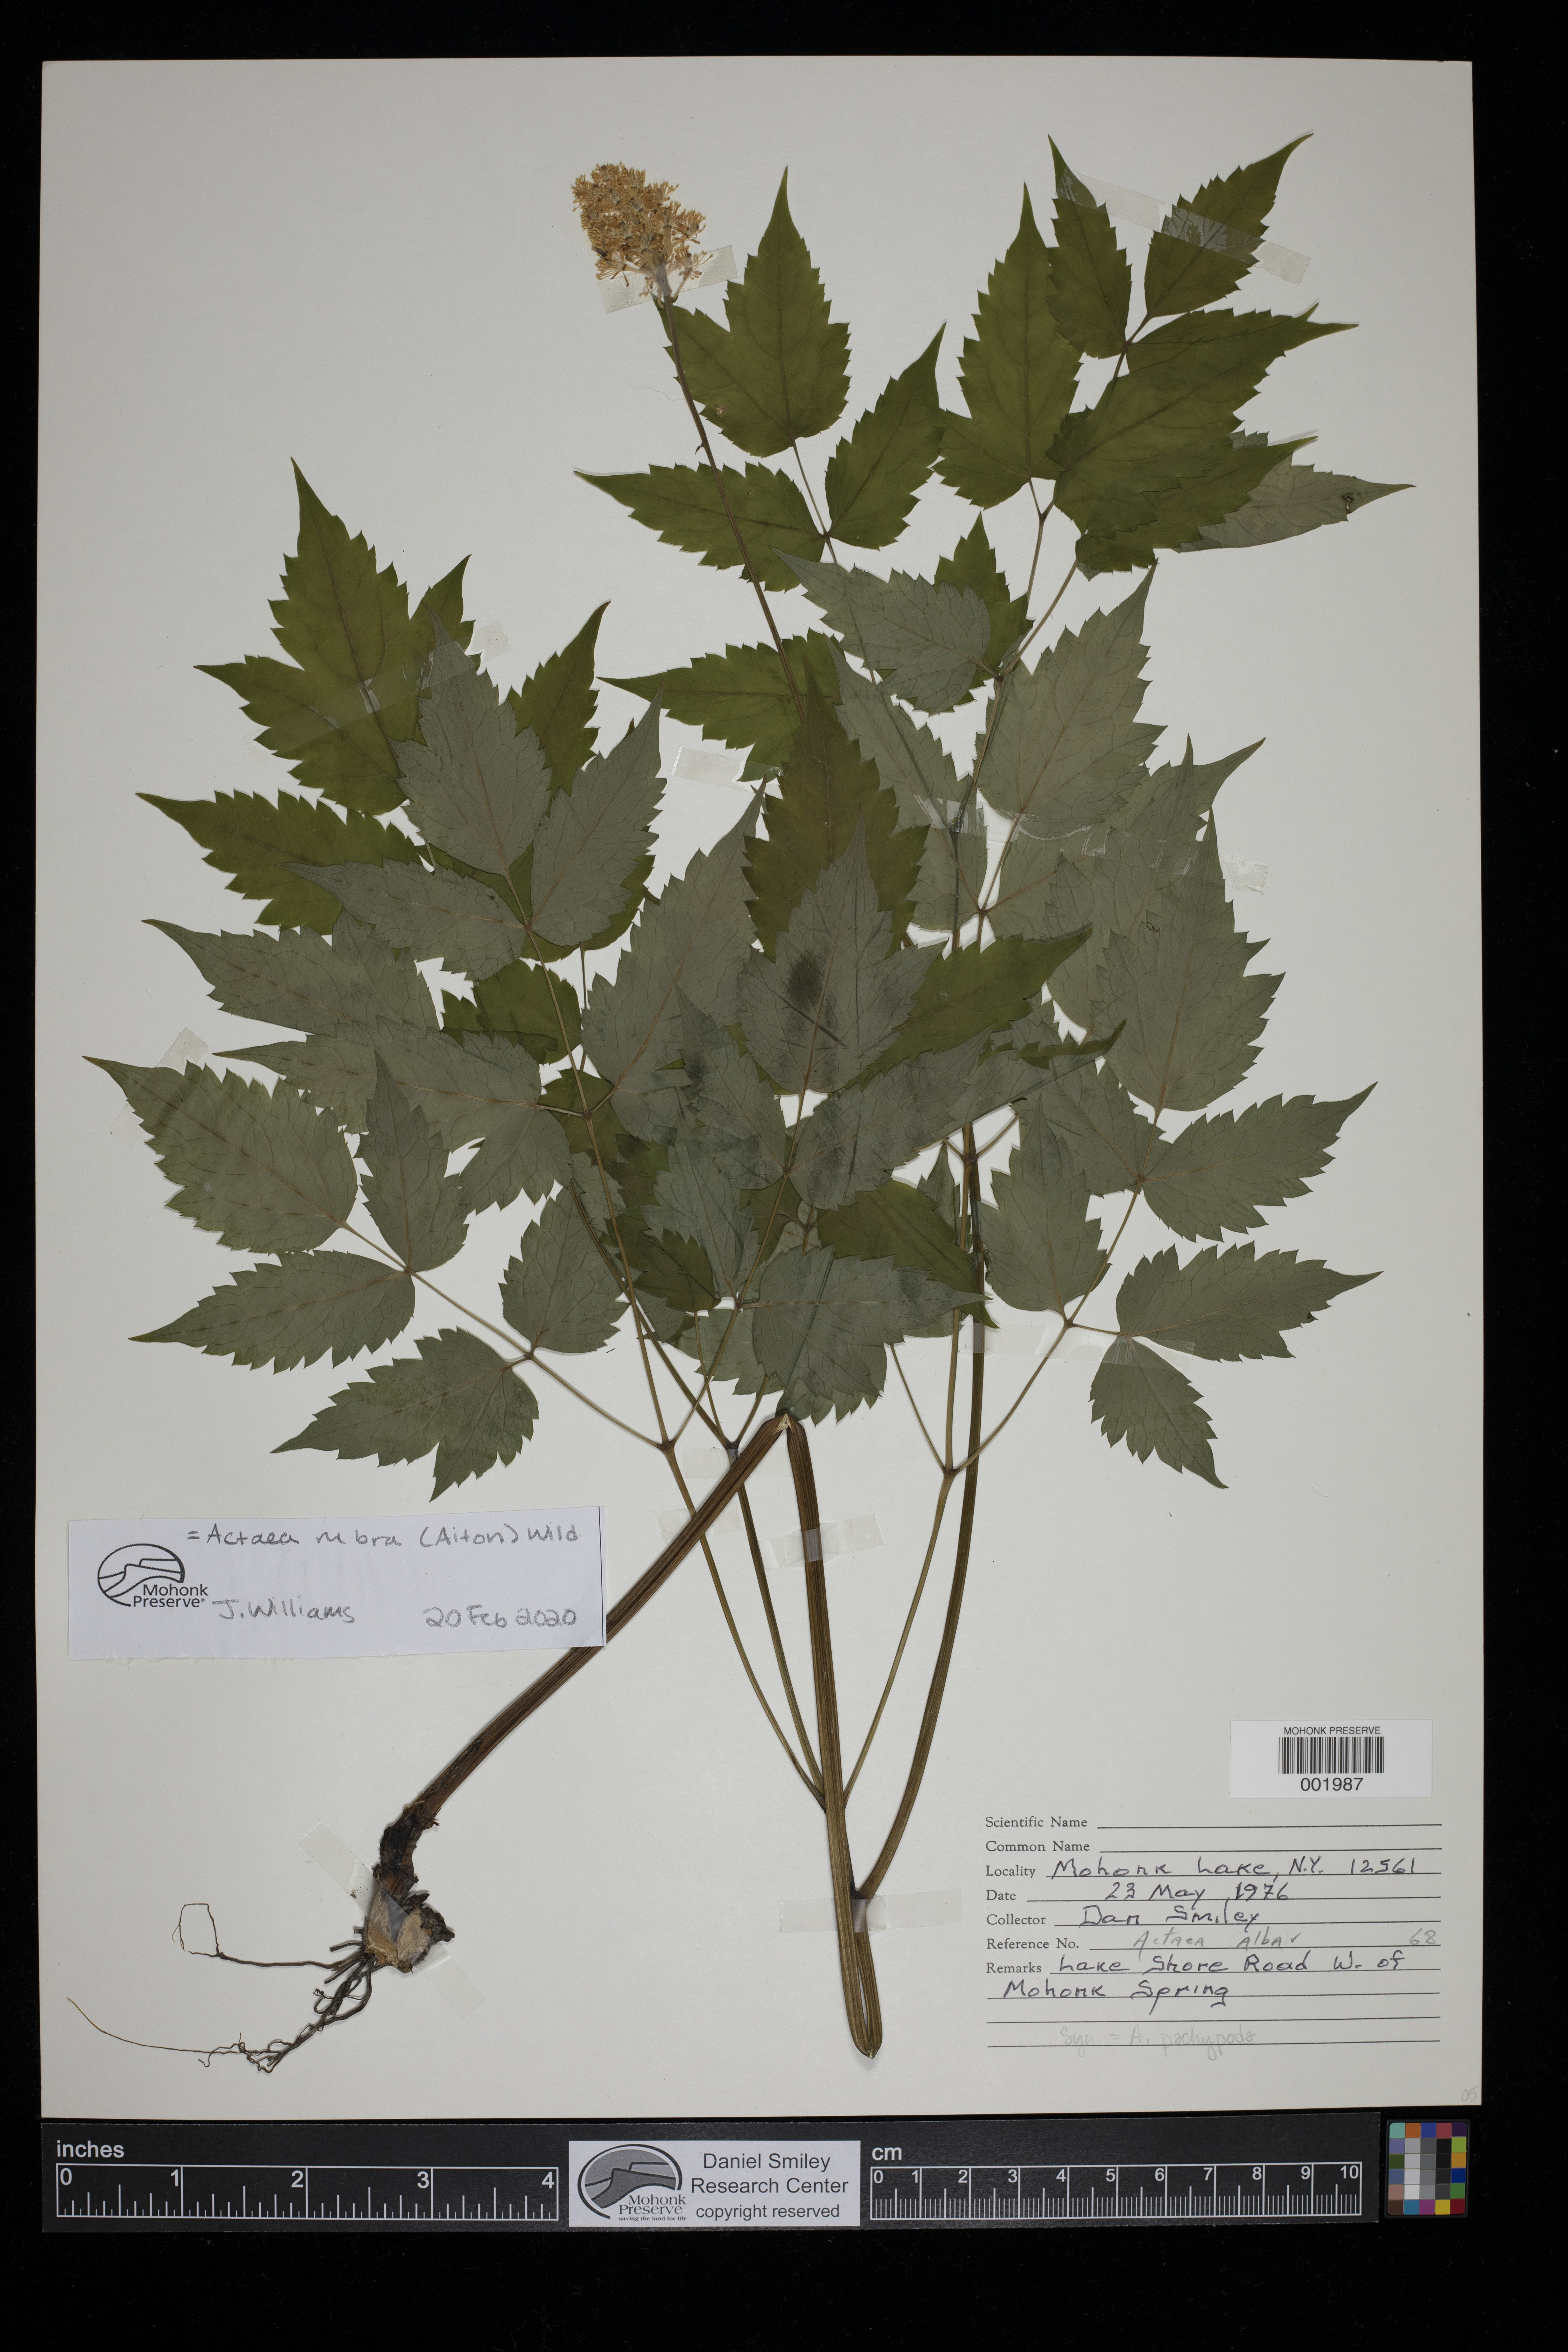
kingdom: Plantae
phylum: Tracheophyta
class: Magnoliopsida
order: Ranunculales
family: Ranunculaceae
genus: Actaea
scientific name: Actaea rubra
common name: Red baneberry
